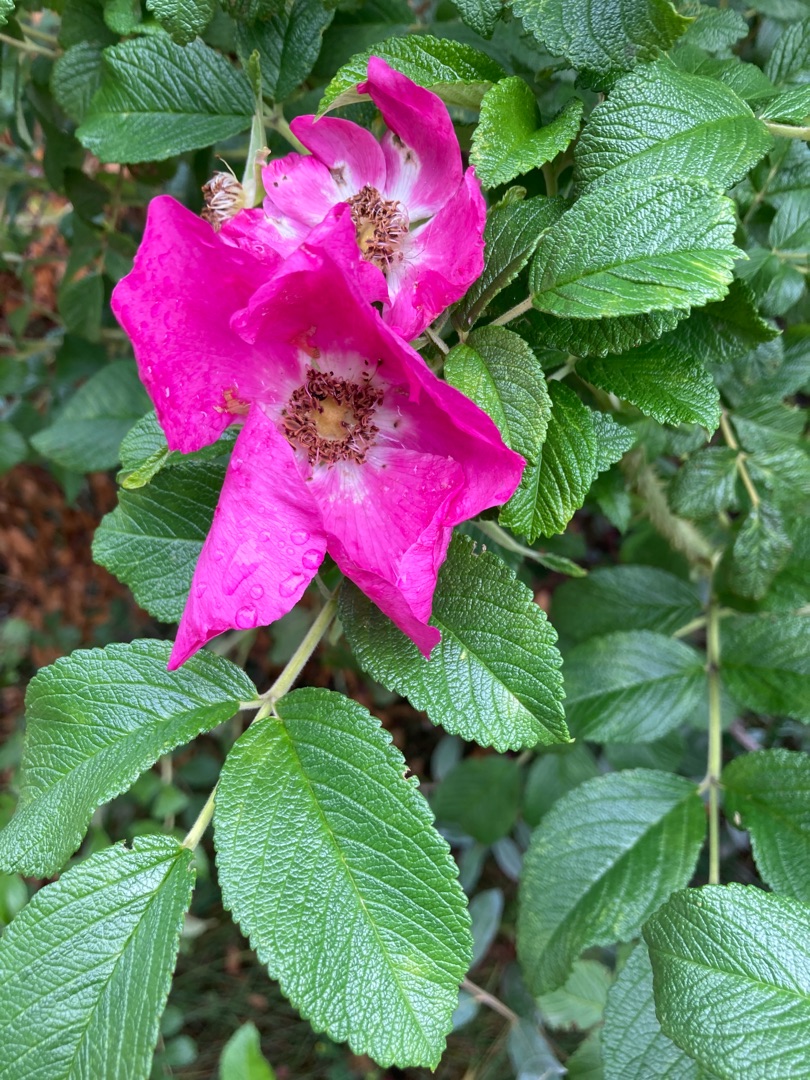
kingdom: Plantae
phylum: Tracheophyta
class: Magnoliopsida
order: Rosales
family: Rosaceae
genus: Rosa
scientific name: Rosa rugosa
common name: Rynket rose
